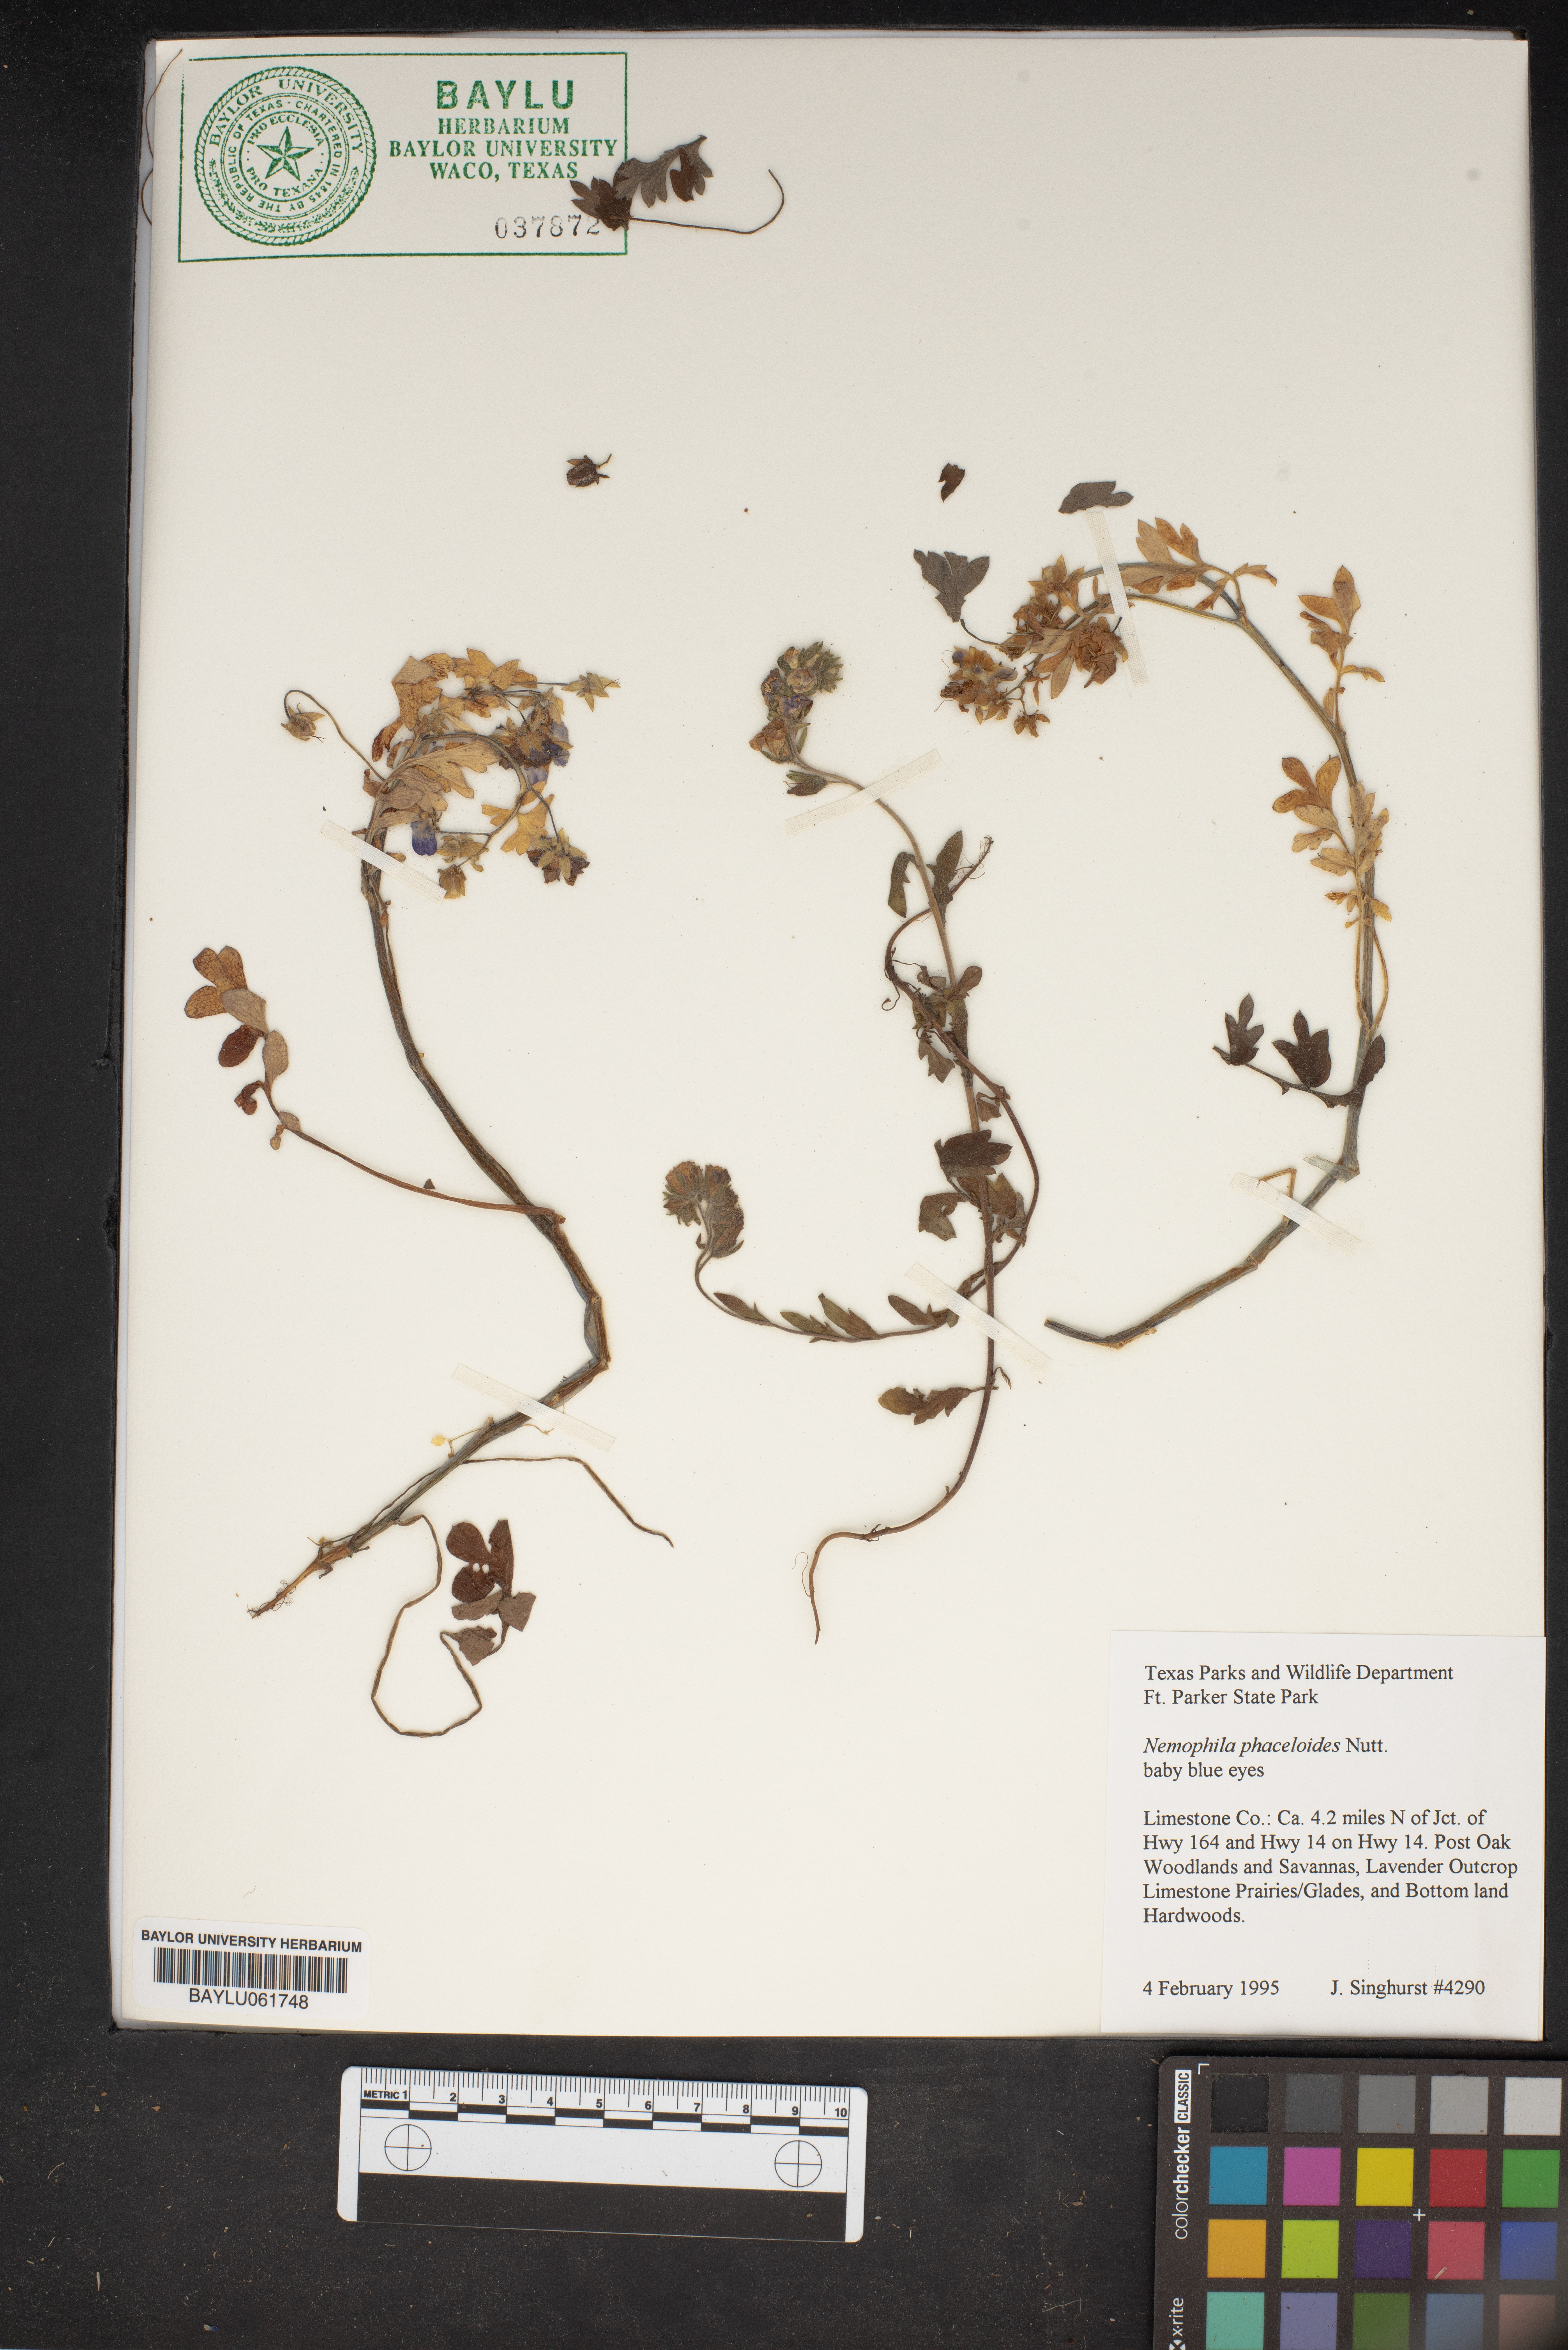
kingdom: Plantae
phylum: Tracheophyta
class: Magnoliopsida
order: Boraginales
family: Hydrophyllaceae
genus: Nemophila
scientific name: Nemophila phacelioides
